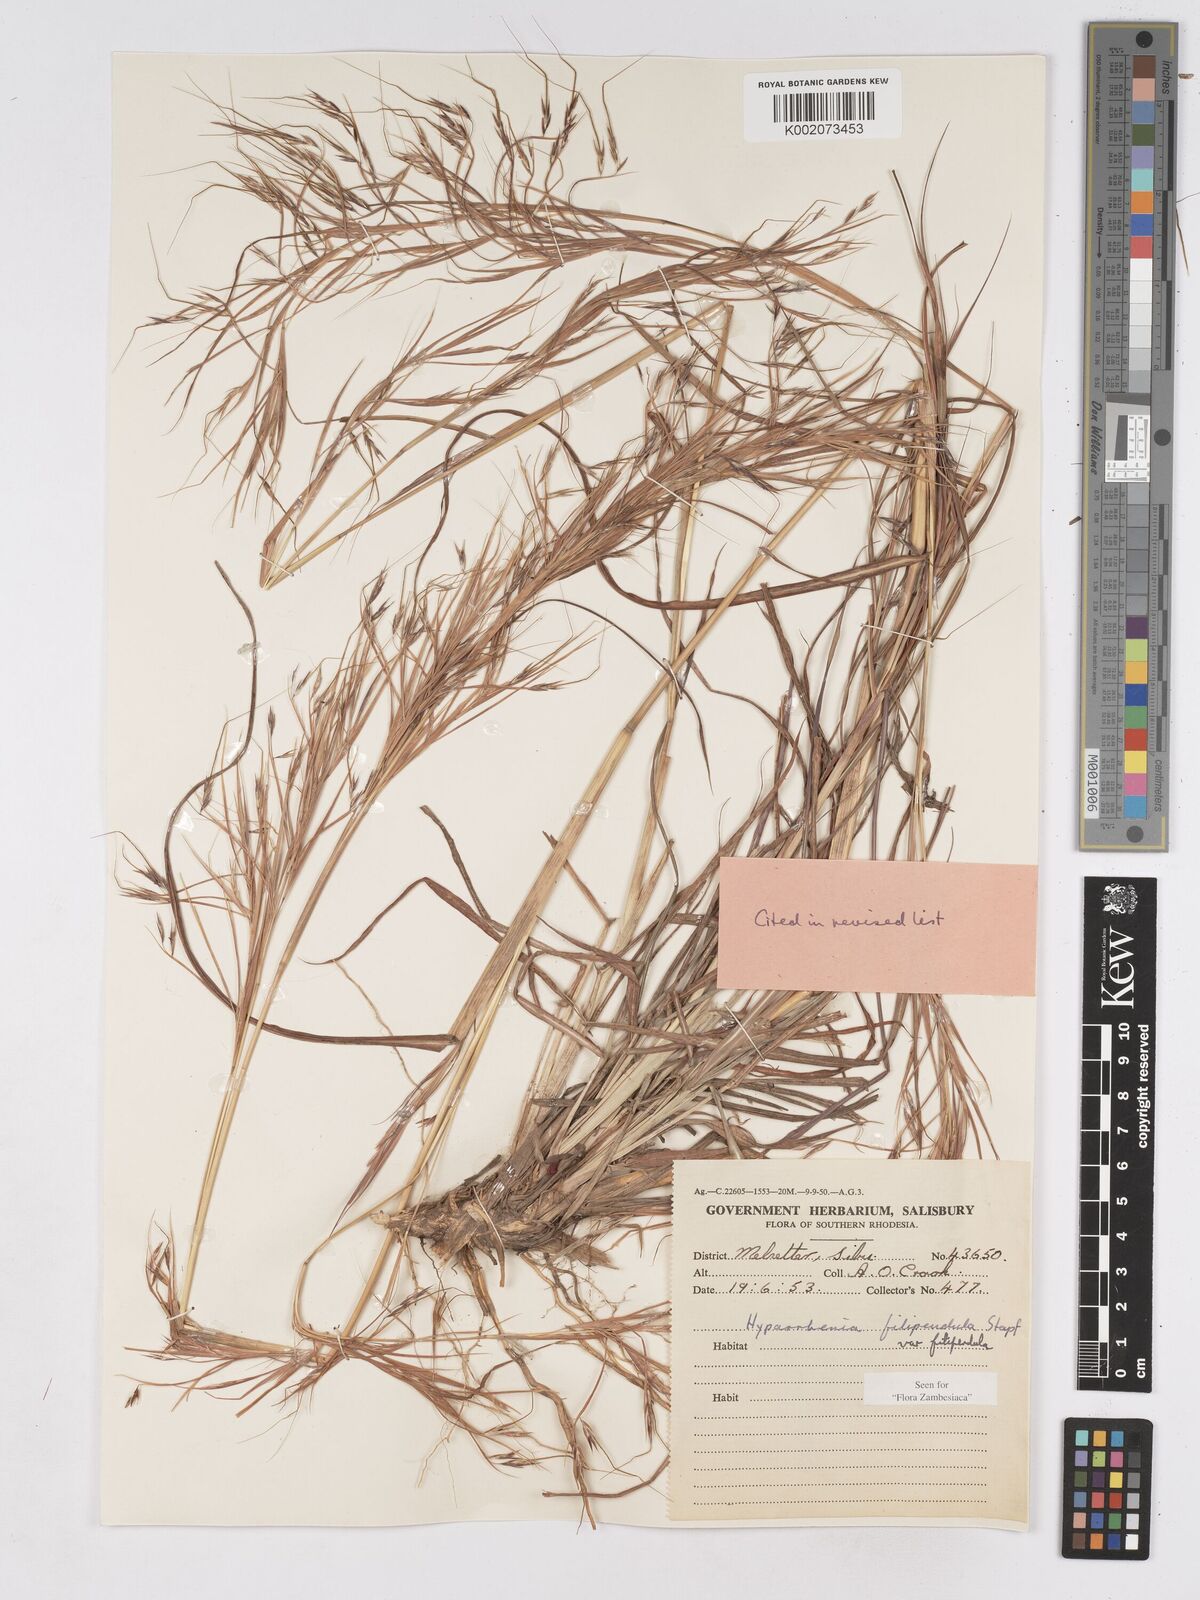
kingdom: Plantae
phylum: Tracheophyta
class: Liliopsida
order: Poales
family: Poaceae
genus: Hyparrhenia
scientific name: Hyparrhenia filipendula
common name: Tambookie grass
